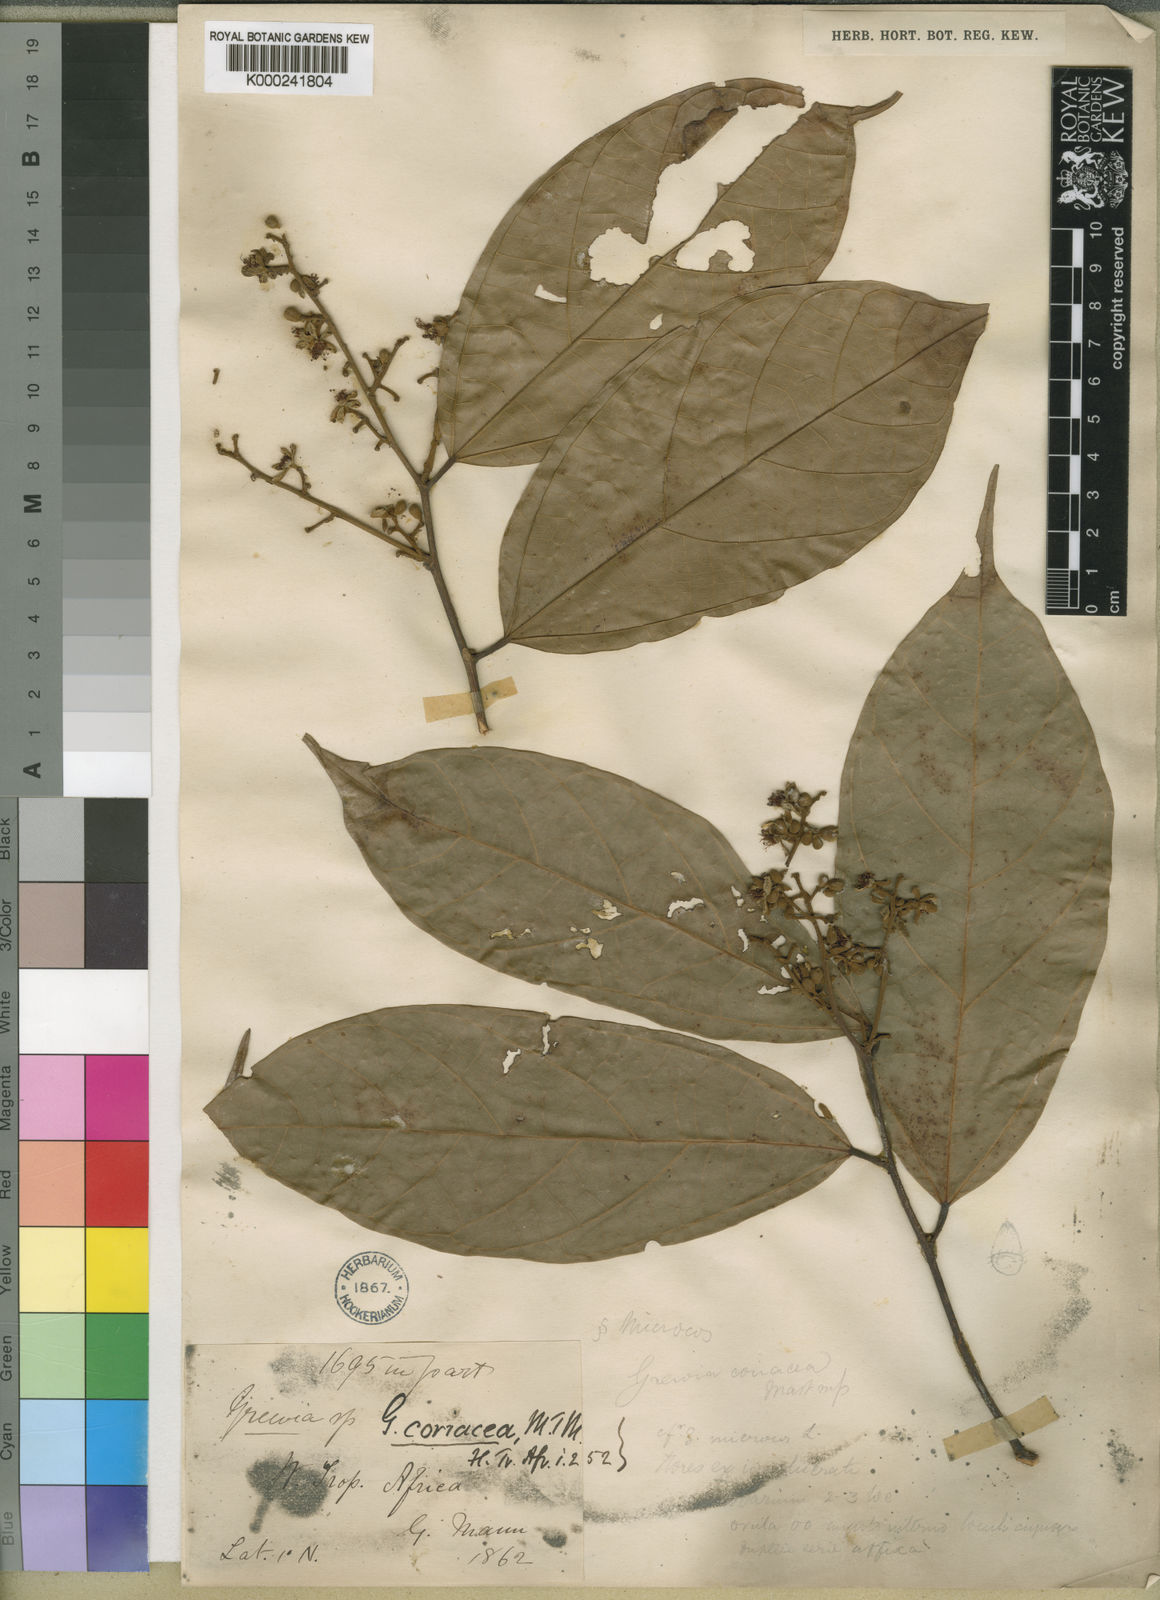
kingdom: Plantae
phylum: Tracheophyta
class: Magnoliopsida
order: Malvales
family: Malvaceae
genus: Microcos
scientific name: Microcos coriacea
